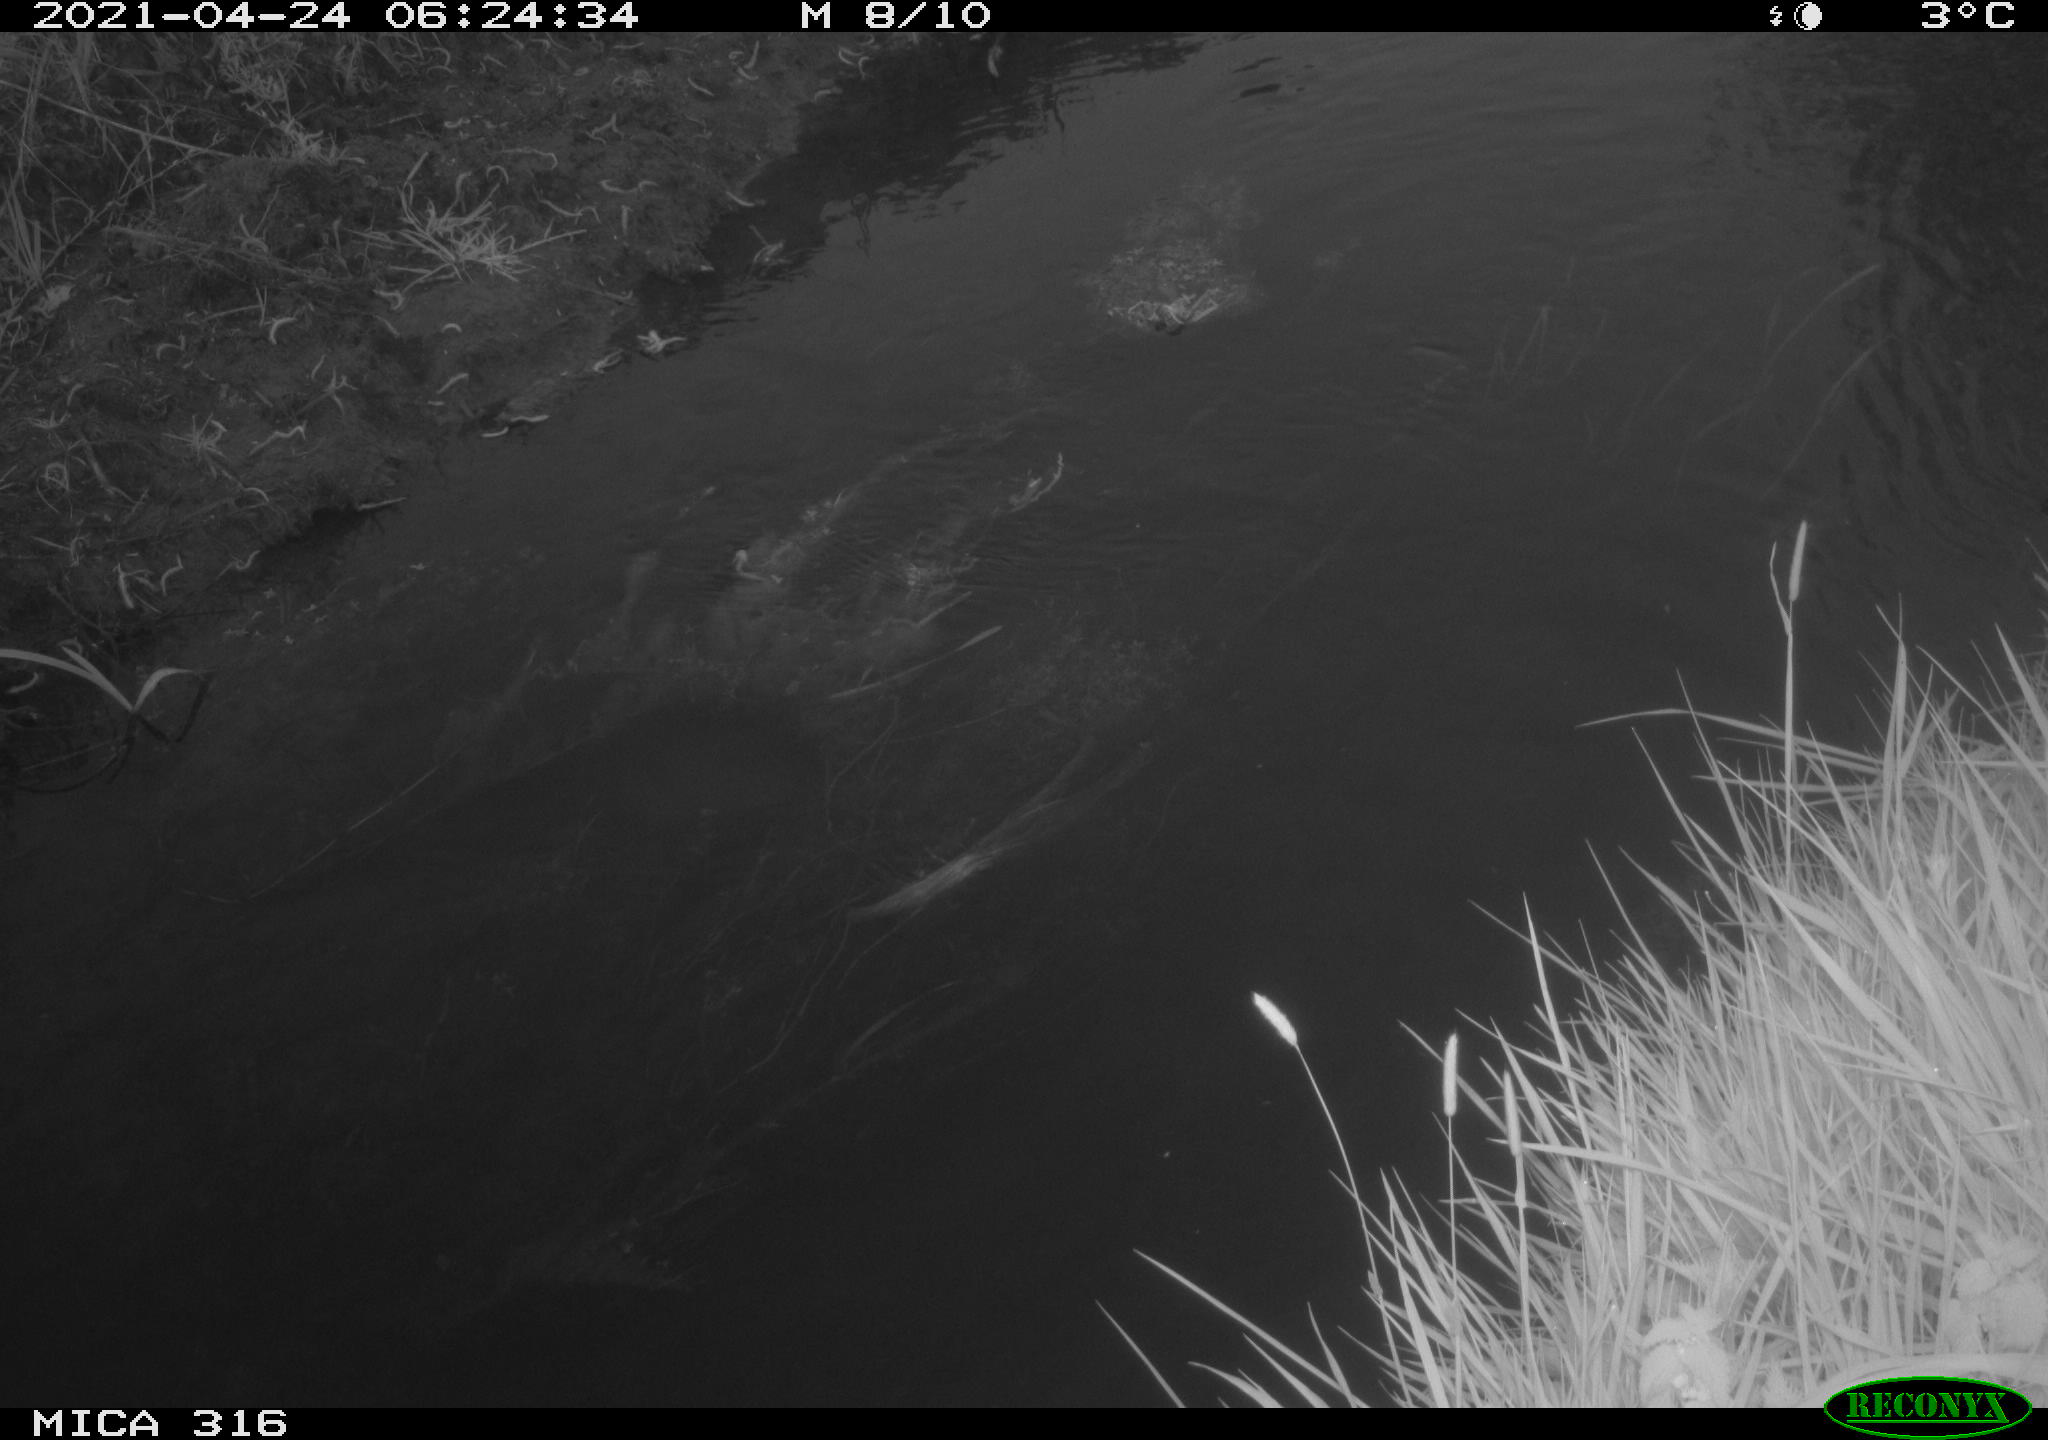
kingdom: Animalia
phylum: Chordata
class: Aves
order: Gruiformes
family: Rallidae
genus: Gallinula
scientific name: Gallinula chloropus
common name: Common moorhen
